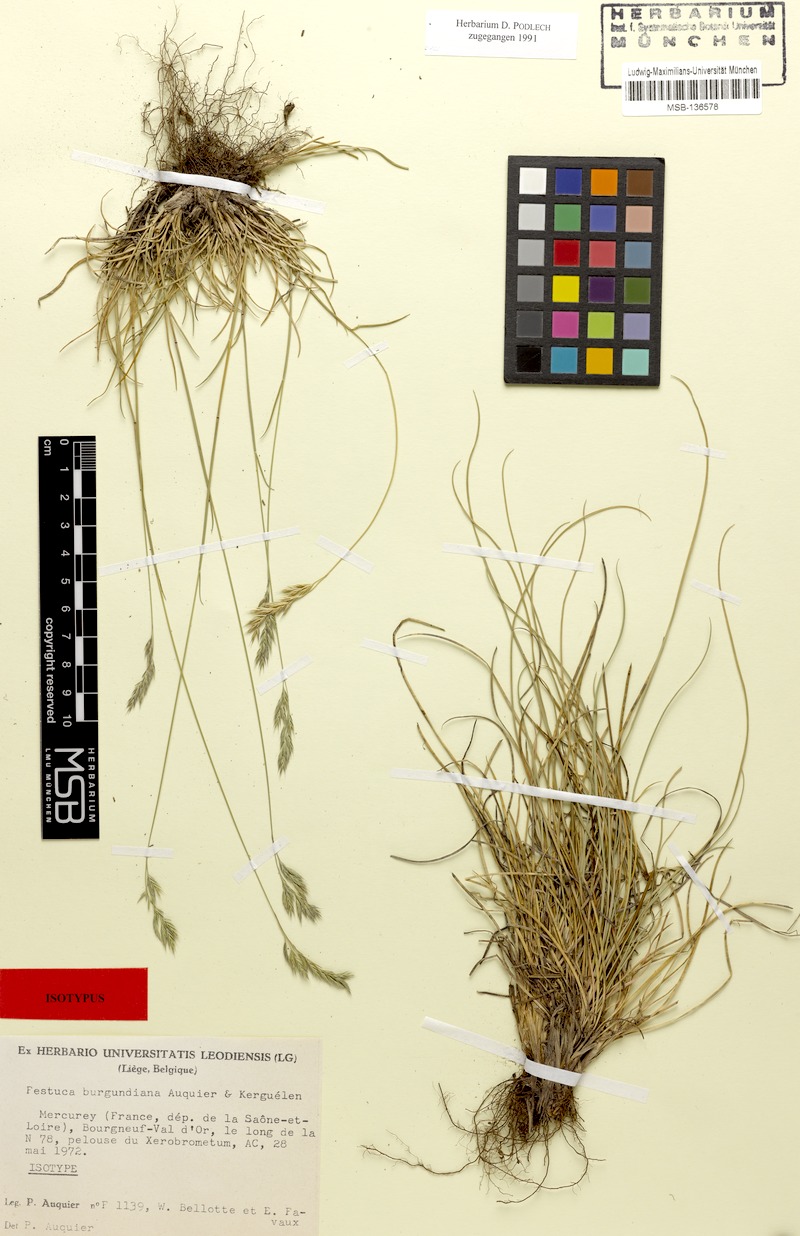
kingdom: Plantae
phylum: Tracheophyta
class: Liliopsida
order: Poales
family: Poaceae
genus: Festuca
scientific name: Festuca burgundiana
